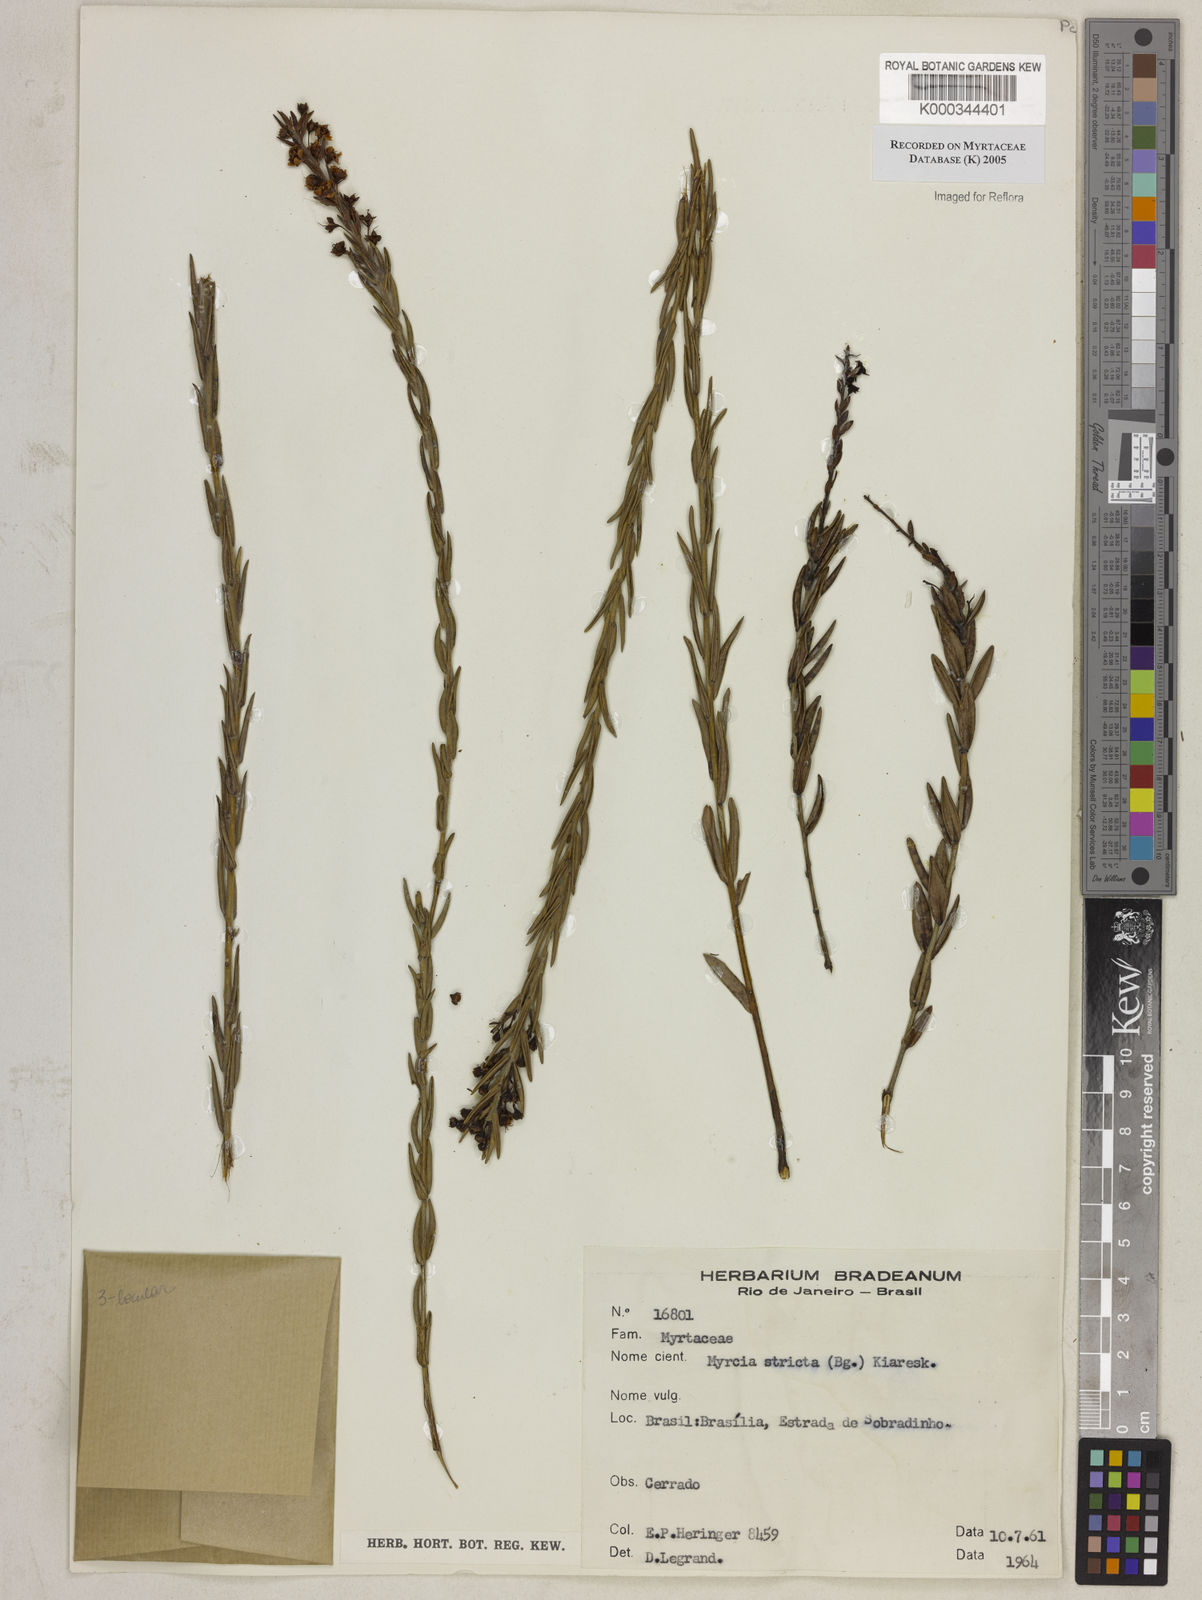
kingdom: Plantae
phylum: Tracheophyta
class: Magnoliopsida
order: Myrtales
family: Myrtaceae
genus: Myrcia
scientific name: Myrcia stricta
